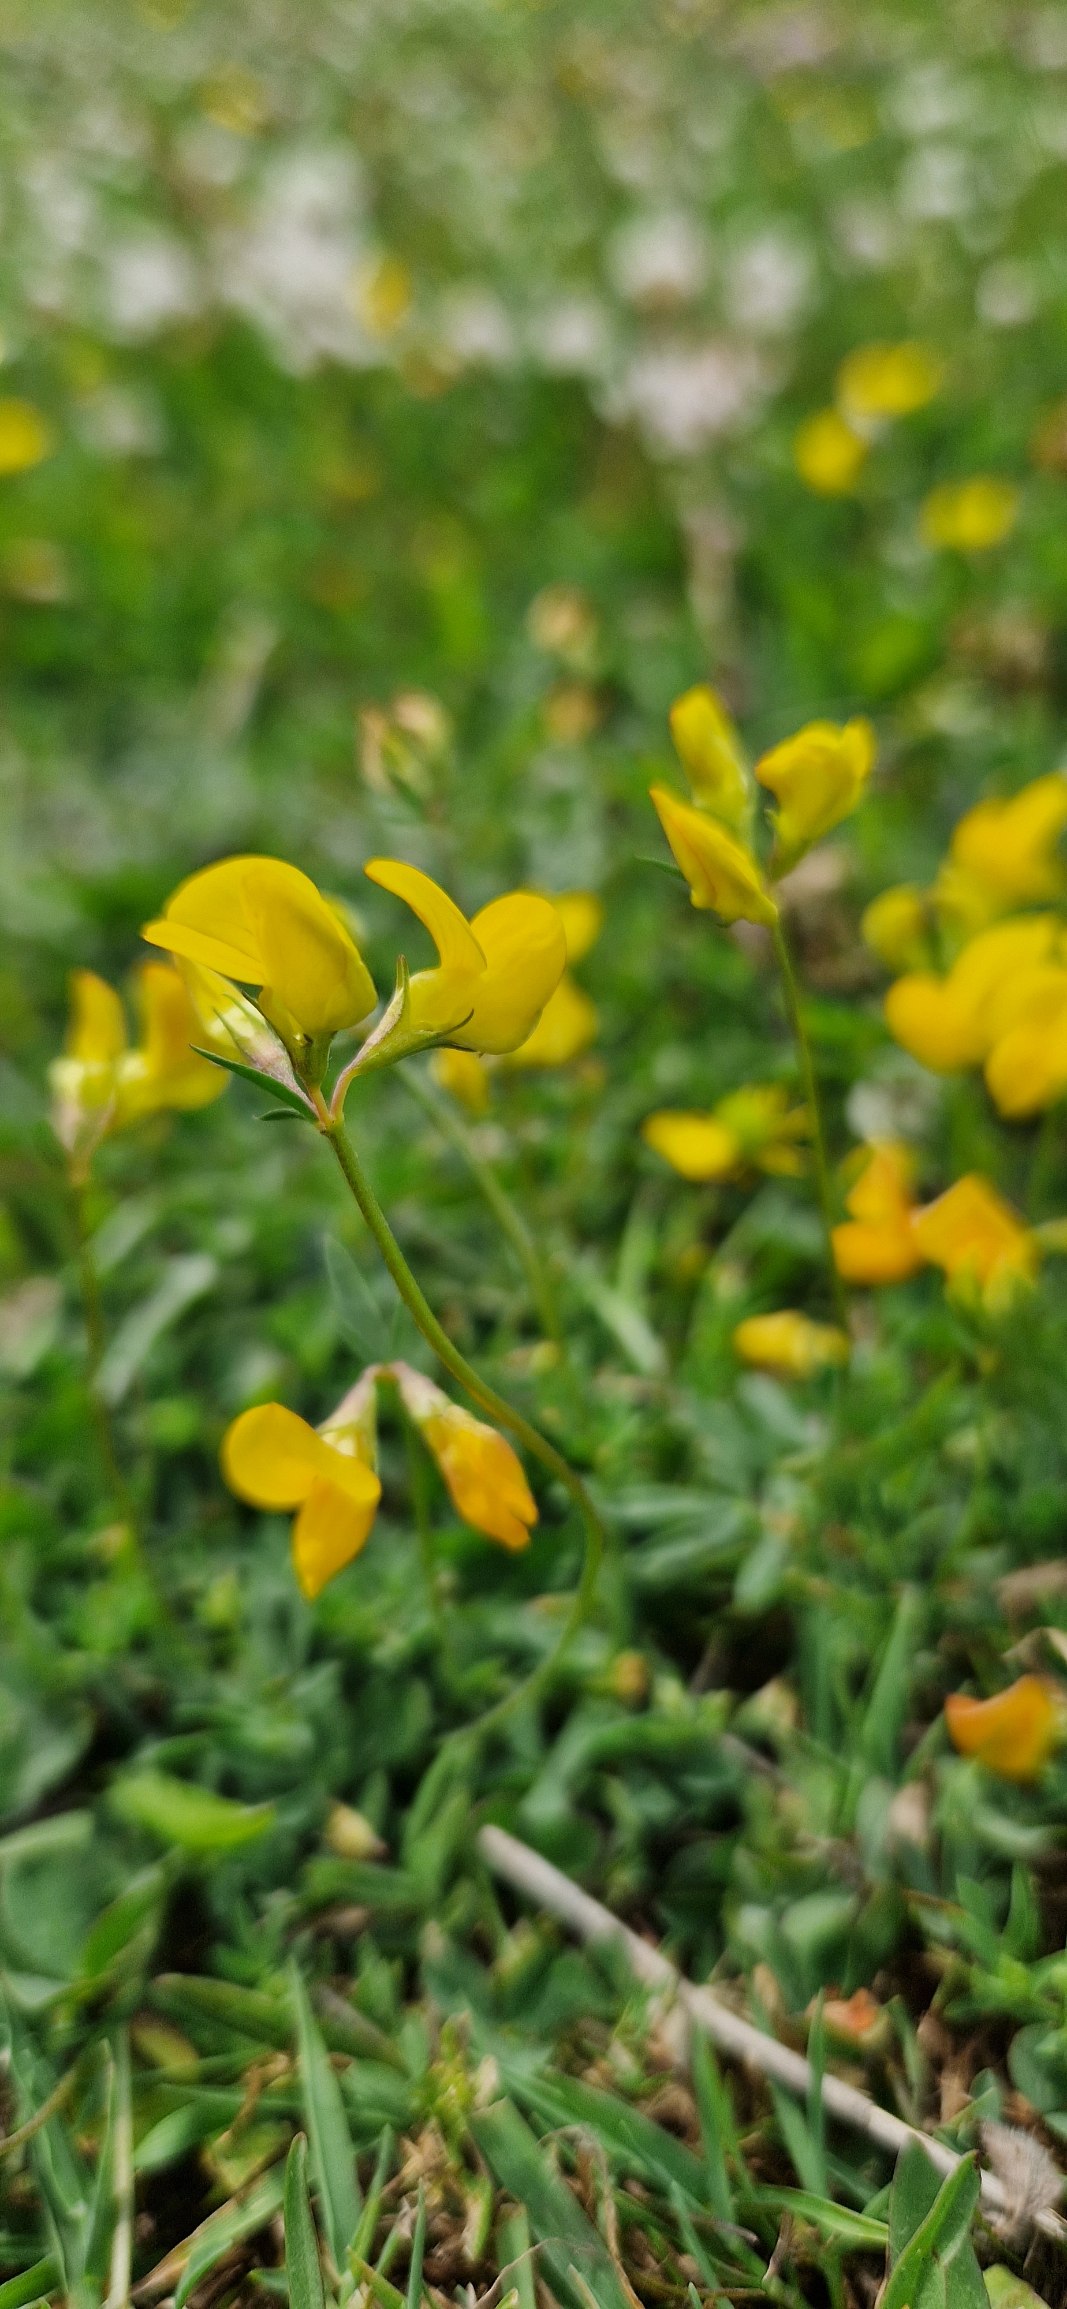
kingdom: Plantae
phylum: Tracheophyta
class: Magnoliopsida
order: Fabales
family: Fabaceae
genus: Lotus
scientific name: Lotus tenuis
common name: Smalbladet kællingetand
